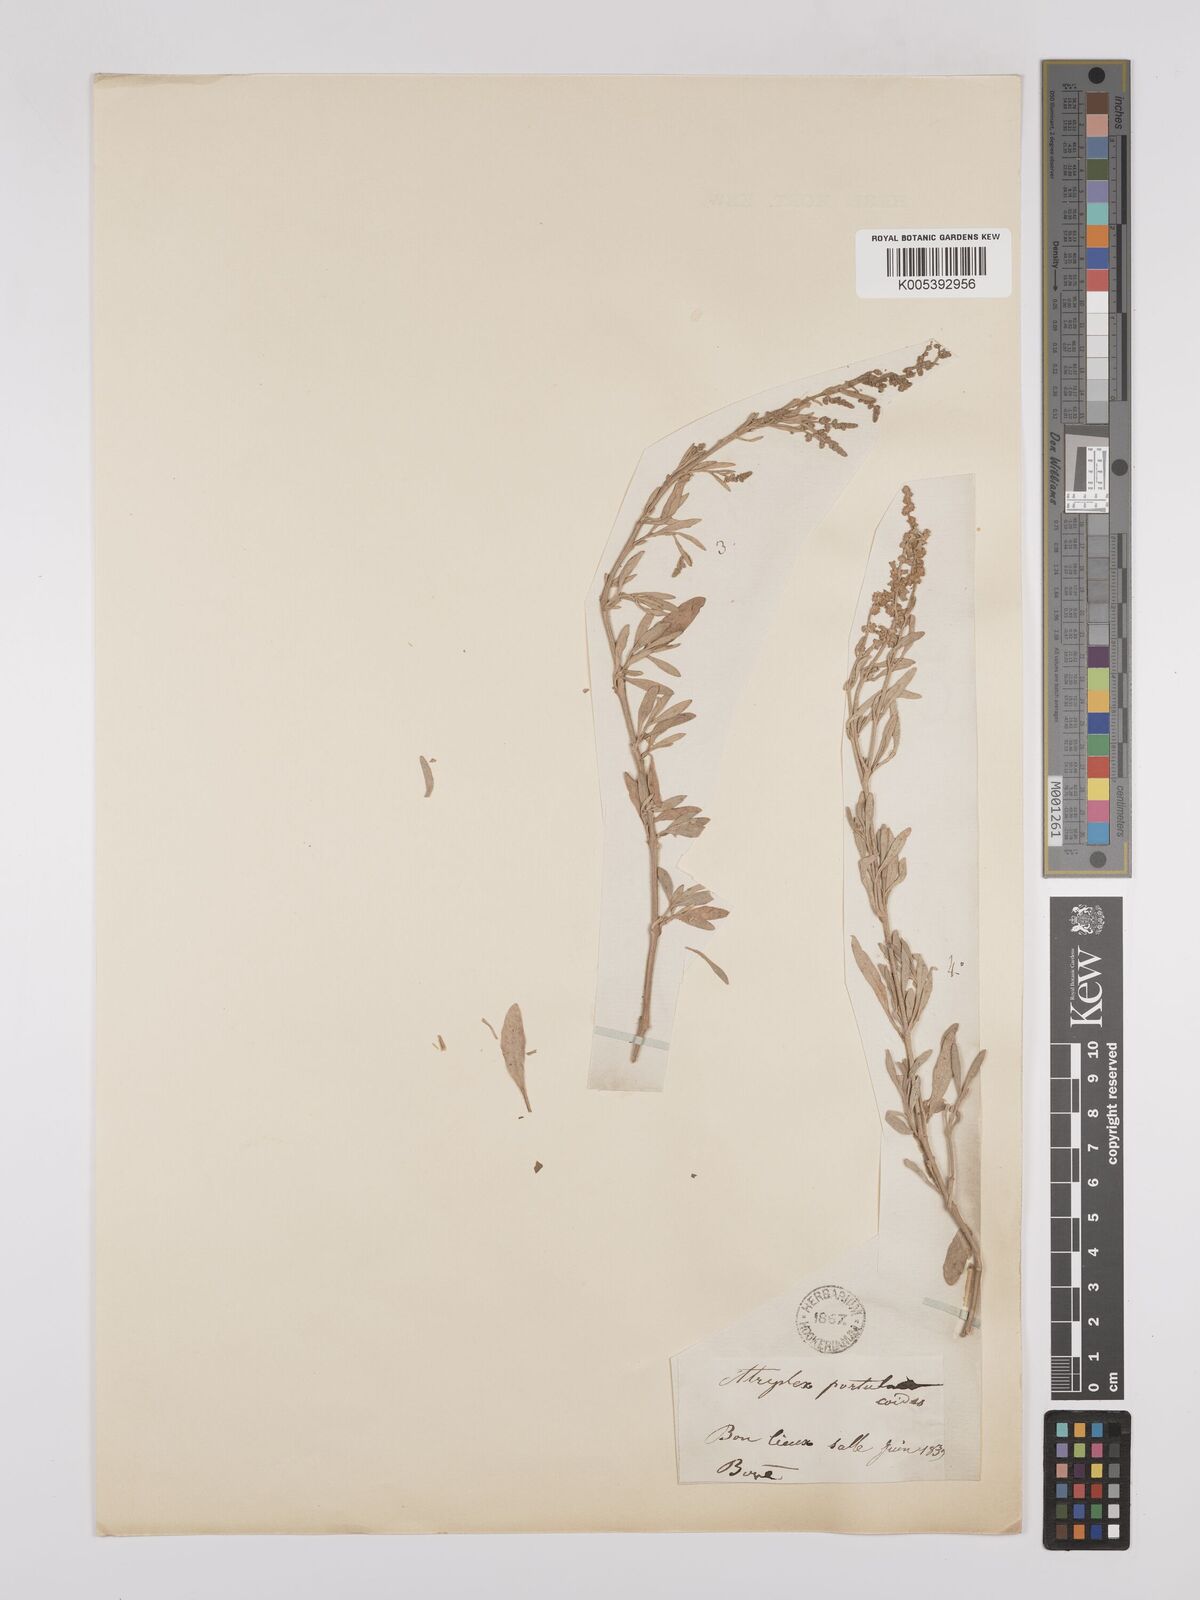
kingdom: Plantae
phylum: Tracheophyta
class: Magnoliopsida
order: Caryophyllales
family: Amaranthaceae
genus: Halimione
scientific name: Halimione portulacoides
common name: Sea-purslane
